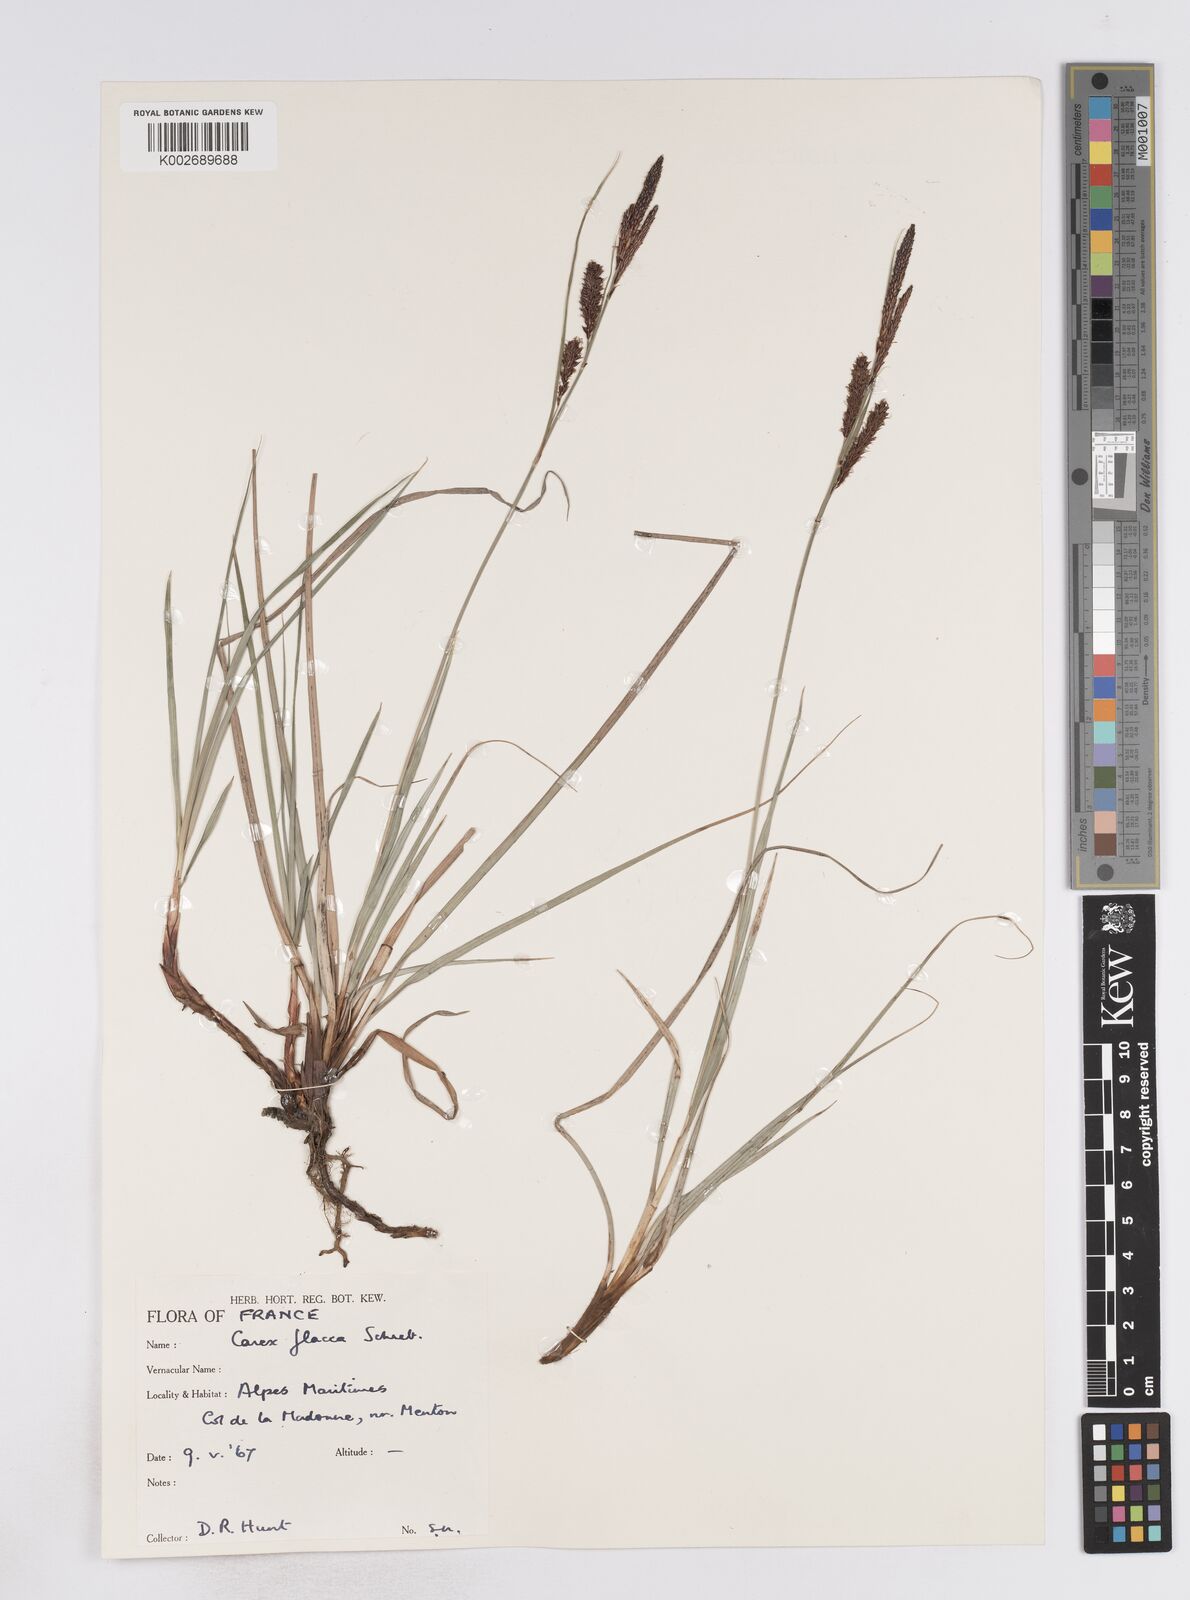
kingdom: Plantae
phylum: Tracheophyta
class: Liliopsida
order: Poales
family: Cyperaceae
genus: Carex
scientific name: Carex flacca
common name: Glaucous sedge
